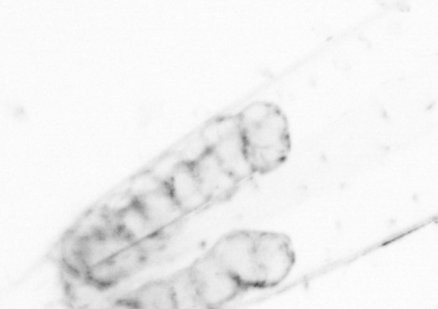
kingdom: Animalia
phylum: Chaetognatha
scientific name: Chaetognatha
